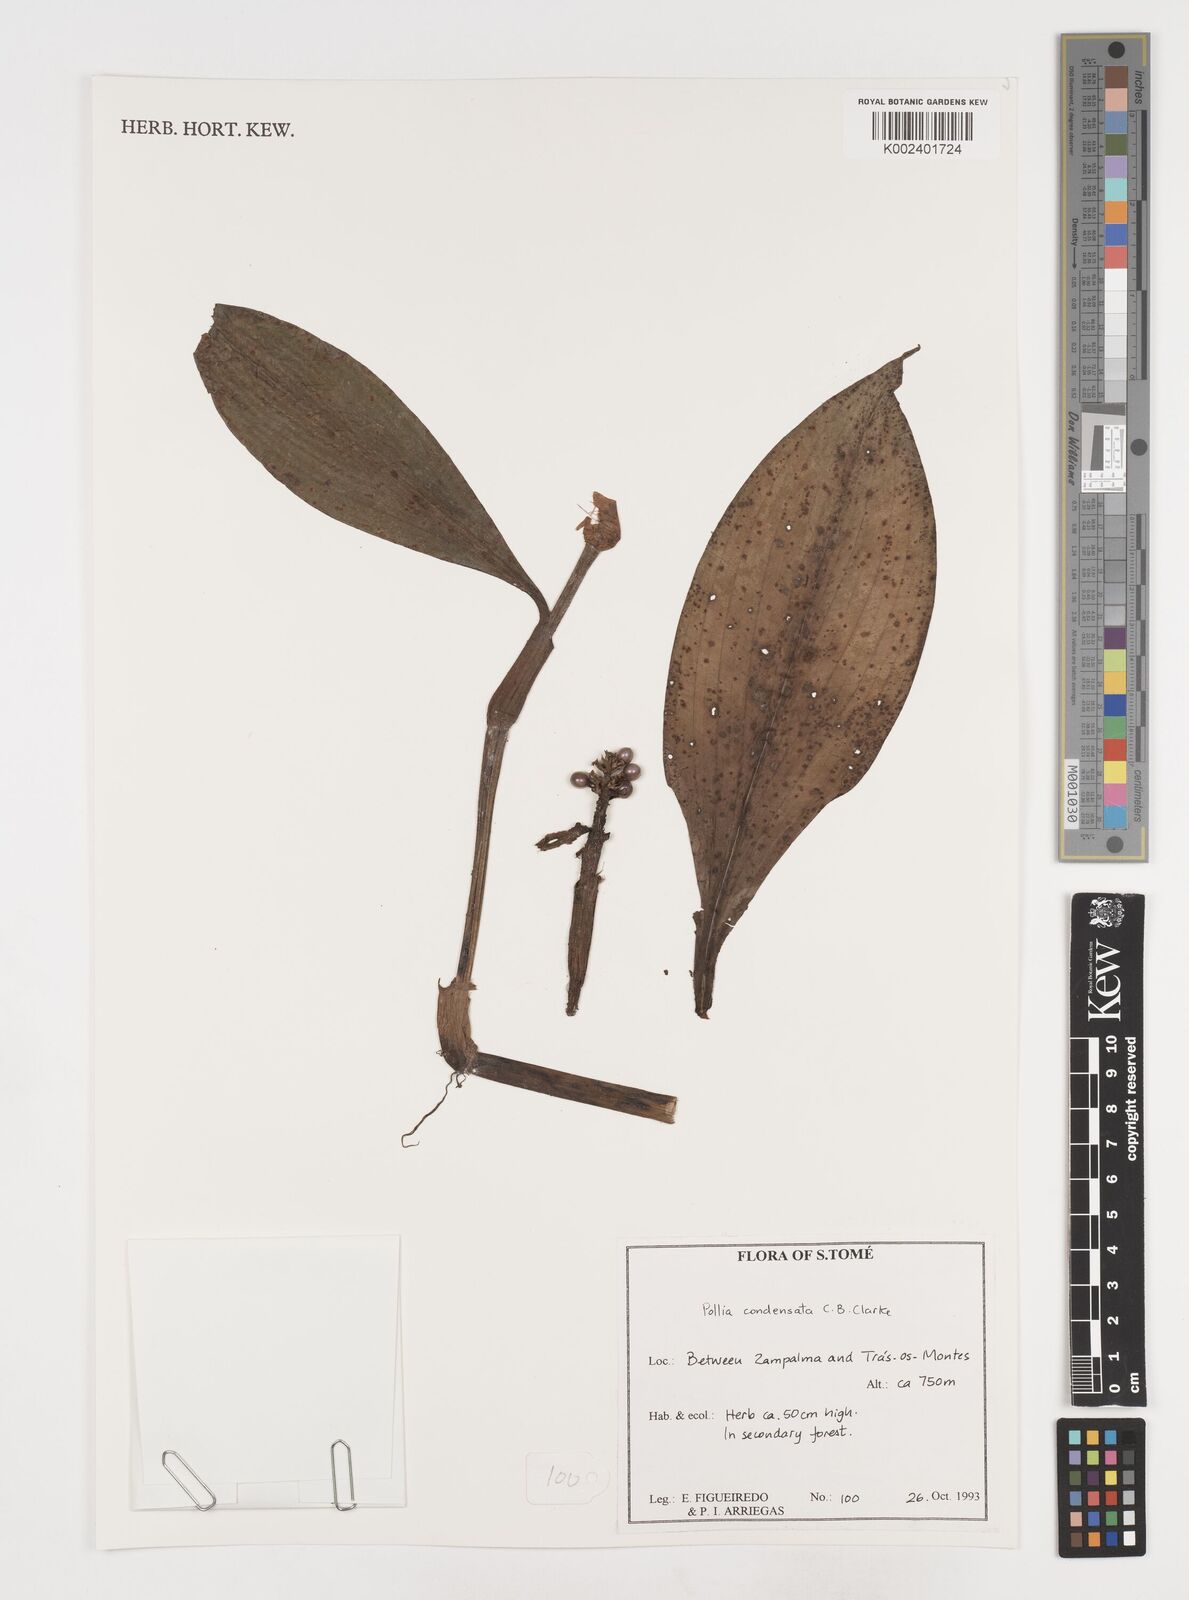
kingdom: Plantae
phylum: Tracheophyta
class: Liliopsida
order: Commelinales
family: Commelinaceae
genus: Pollia
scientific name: Pollia condensata
